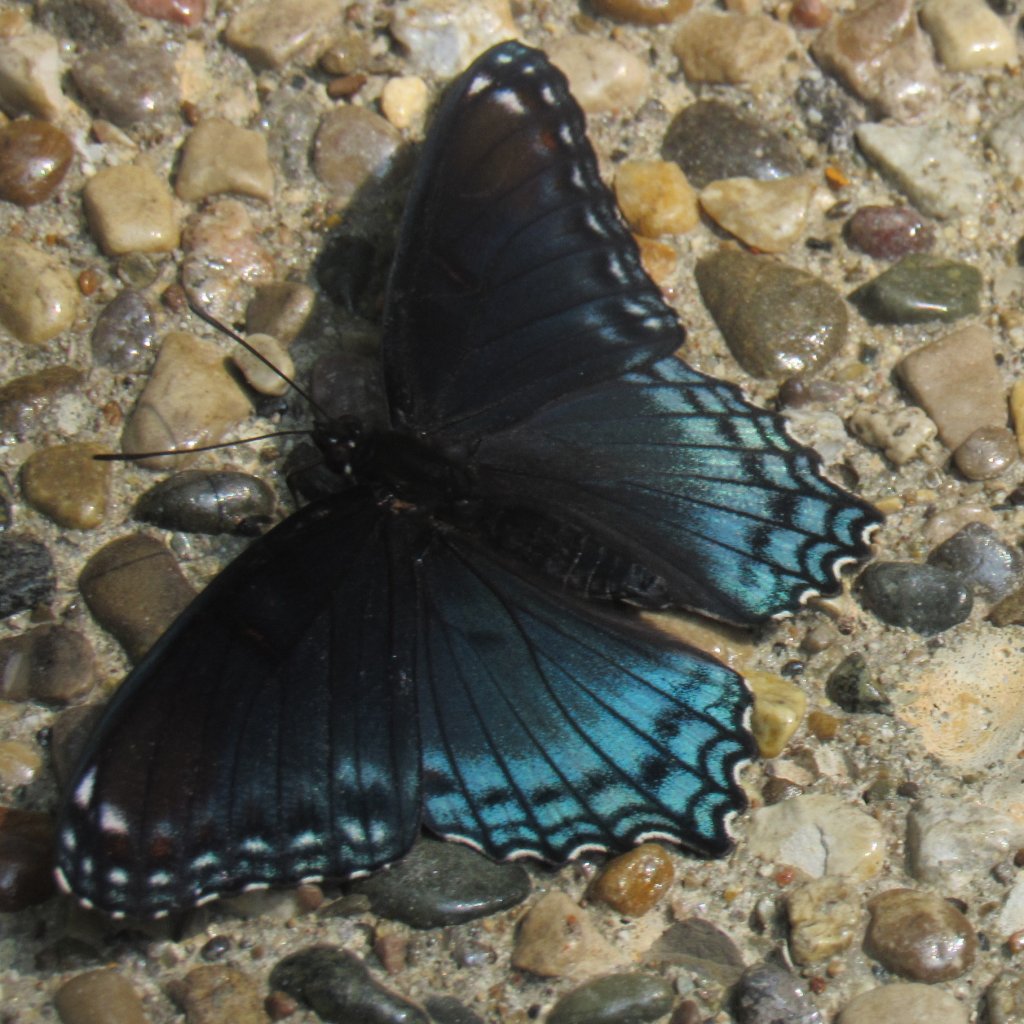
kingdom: Animalia
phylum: Arthropoda
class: Insecta
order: Lepidoptera
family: Nymphalidae
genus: Limenitis
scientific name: Limenitis astyanax
